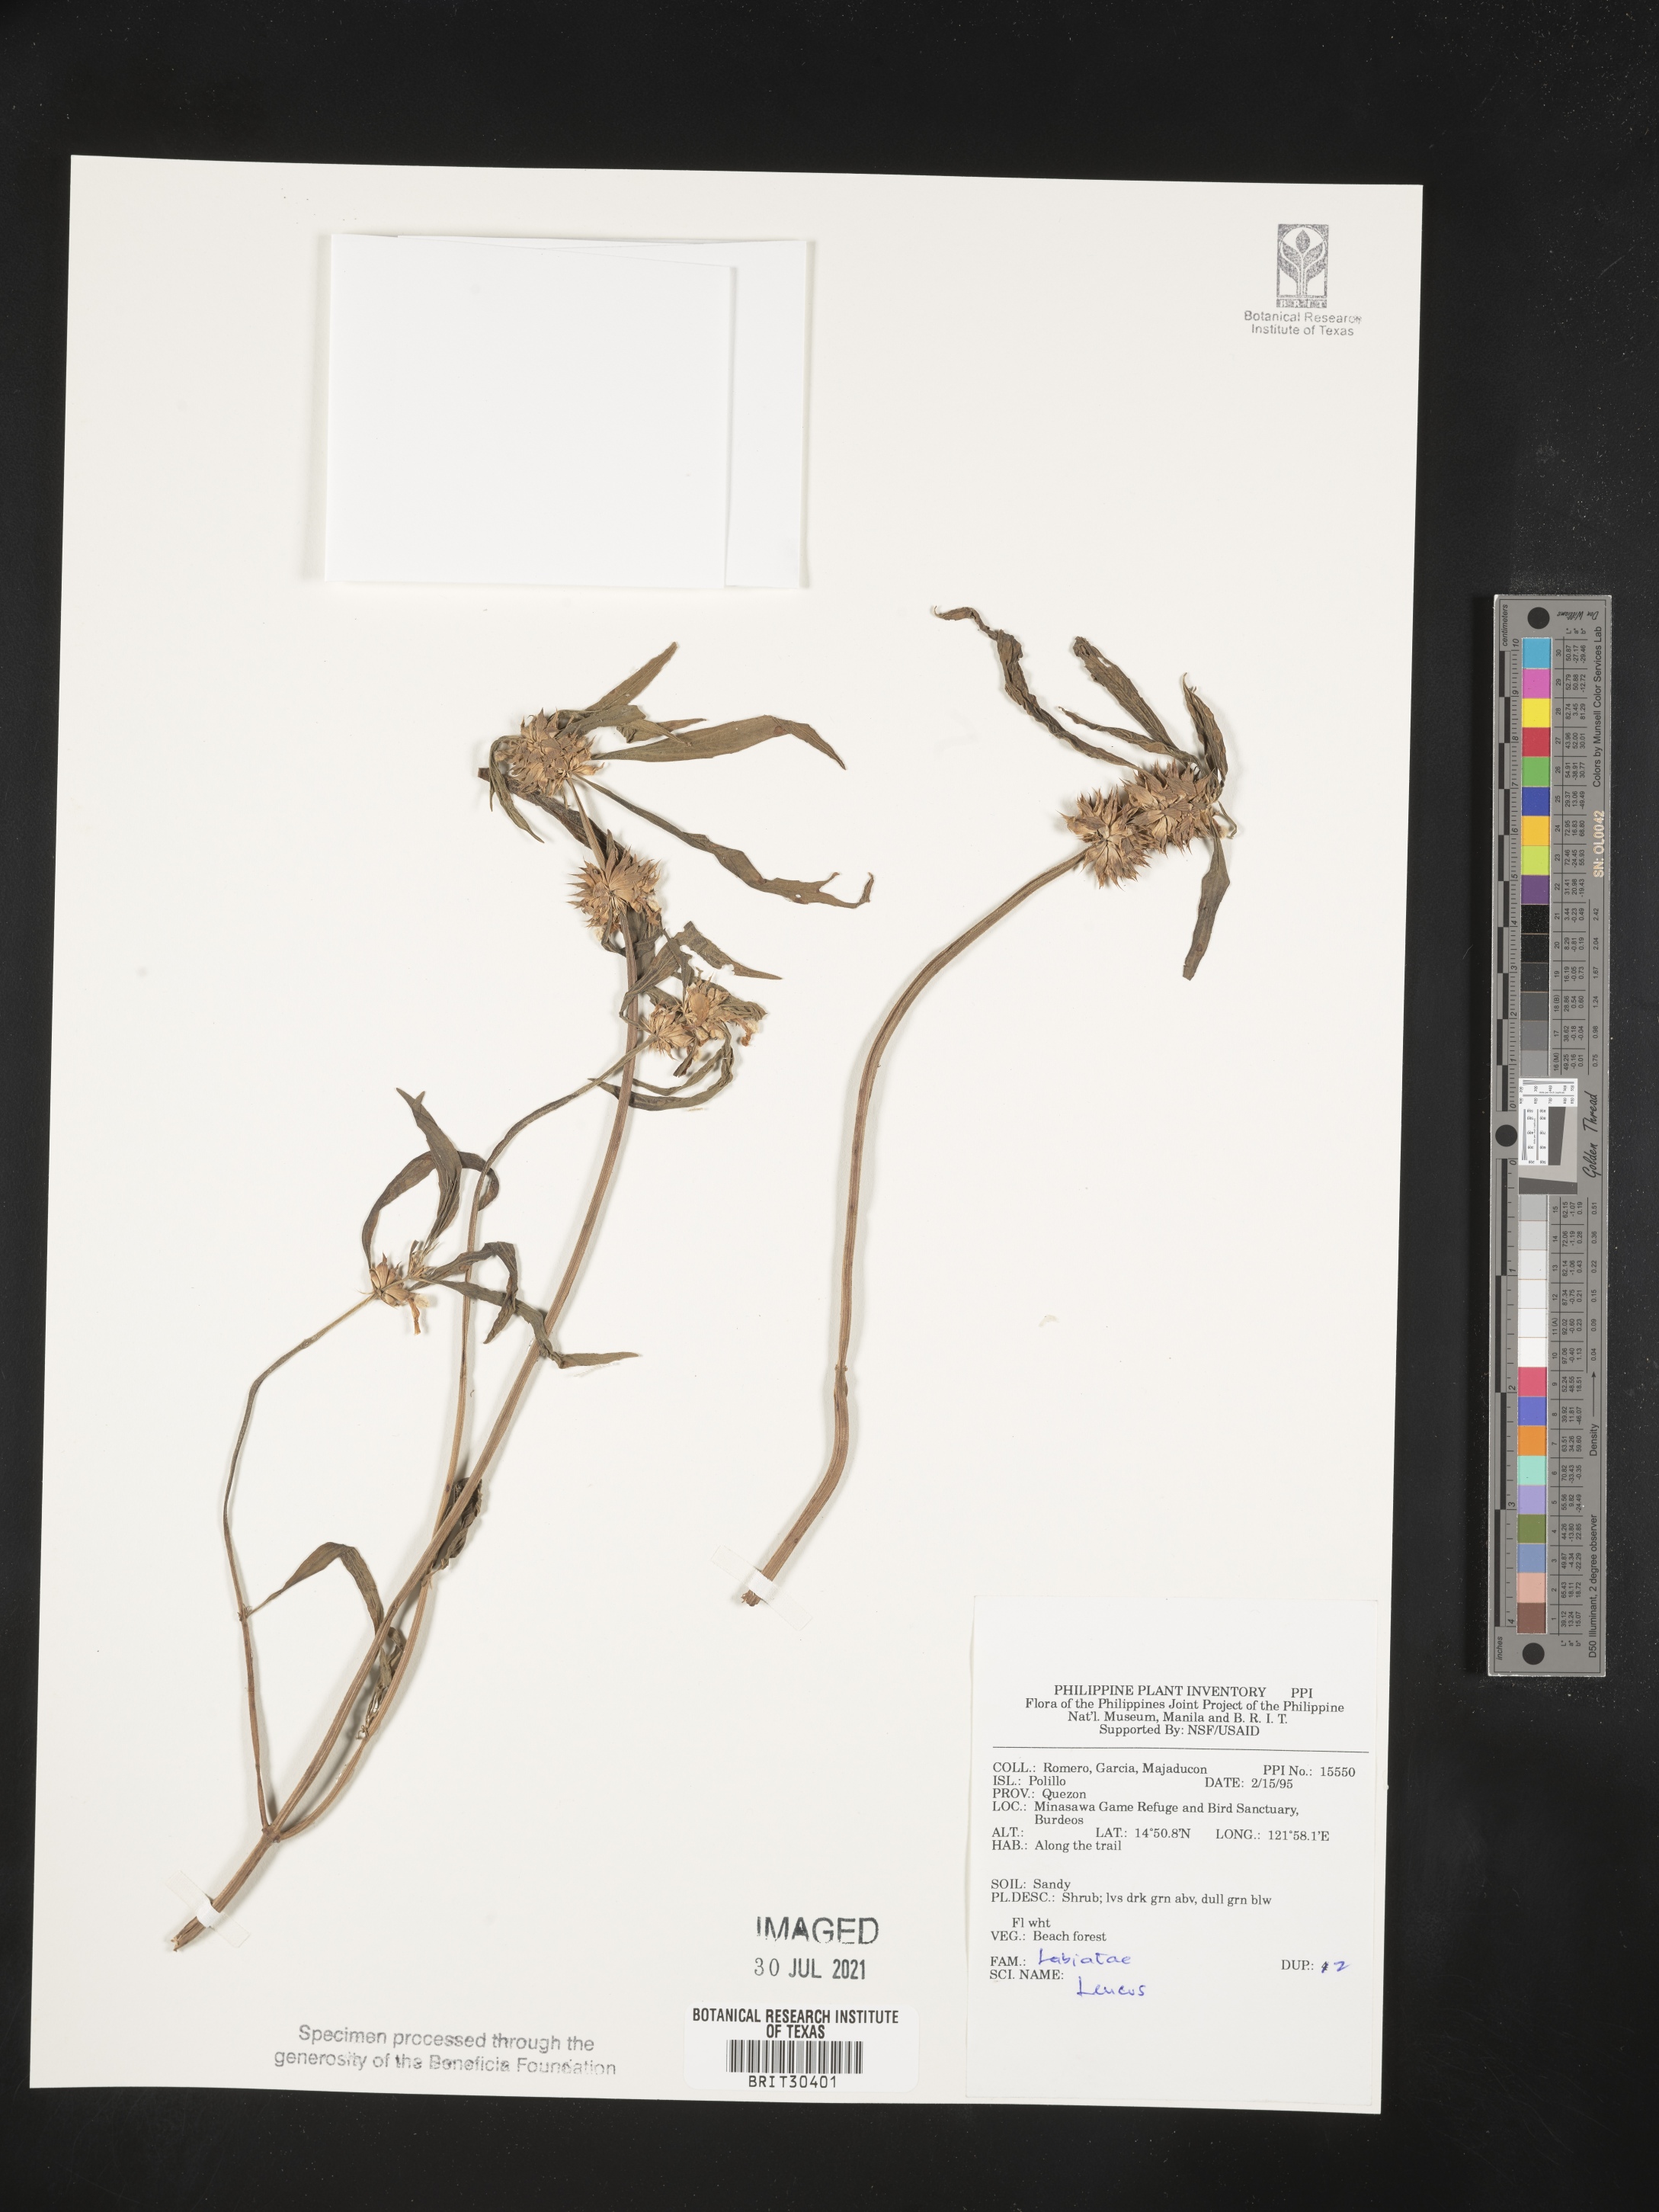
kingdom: Plantae
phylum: Tracheophyta
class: Magnoliopsida
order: Lamiales
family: Lamiaceae
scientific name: Lamiaceae
